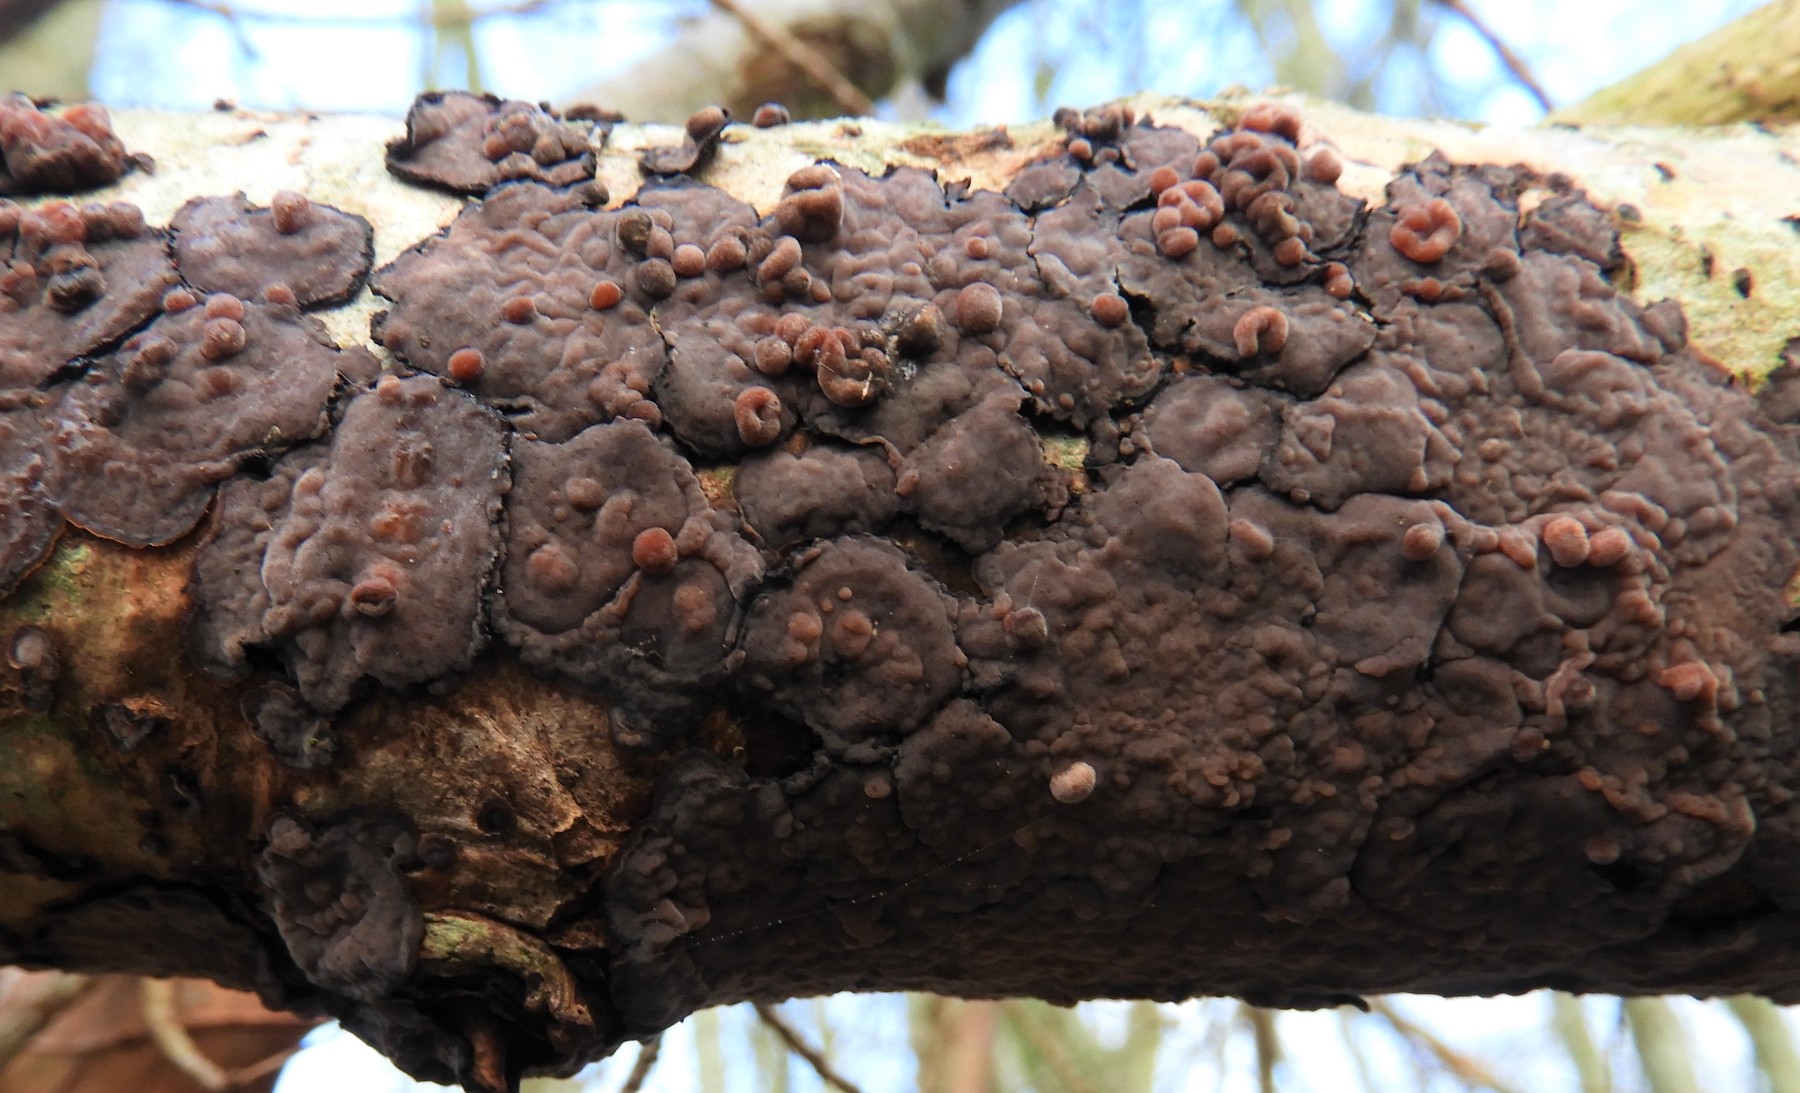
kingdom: Fungi
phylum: Basidiomycota
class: Agaricomycetes
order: Russulales
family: Peniophoraceae
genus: Peniophora
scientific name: Peniophora quercina
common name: ege-voksskind
